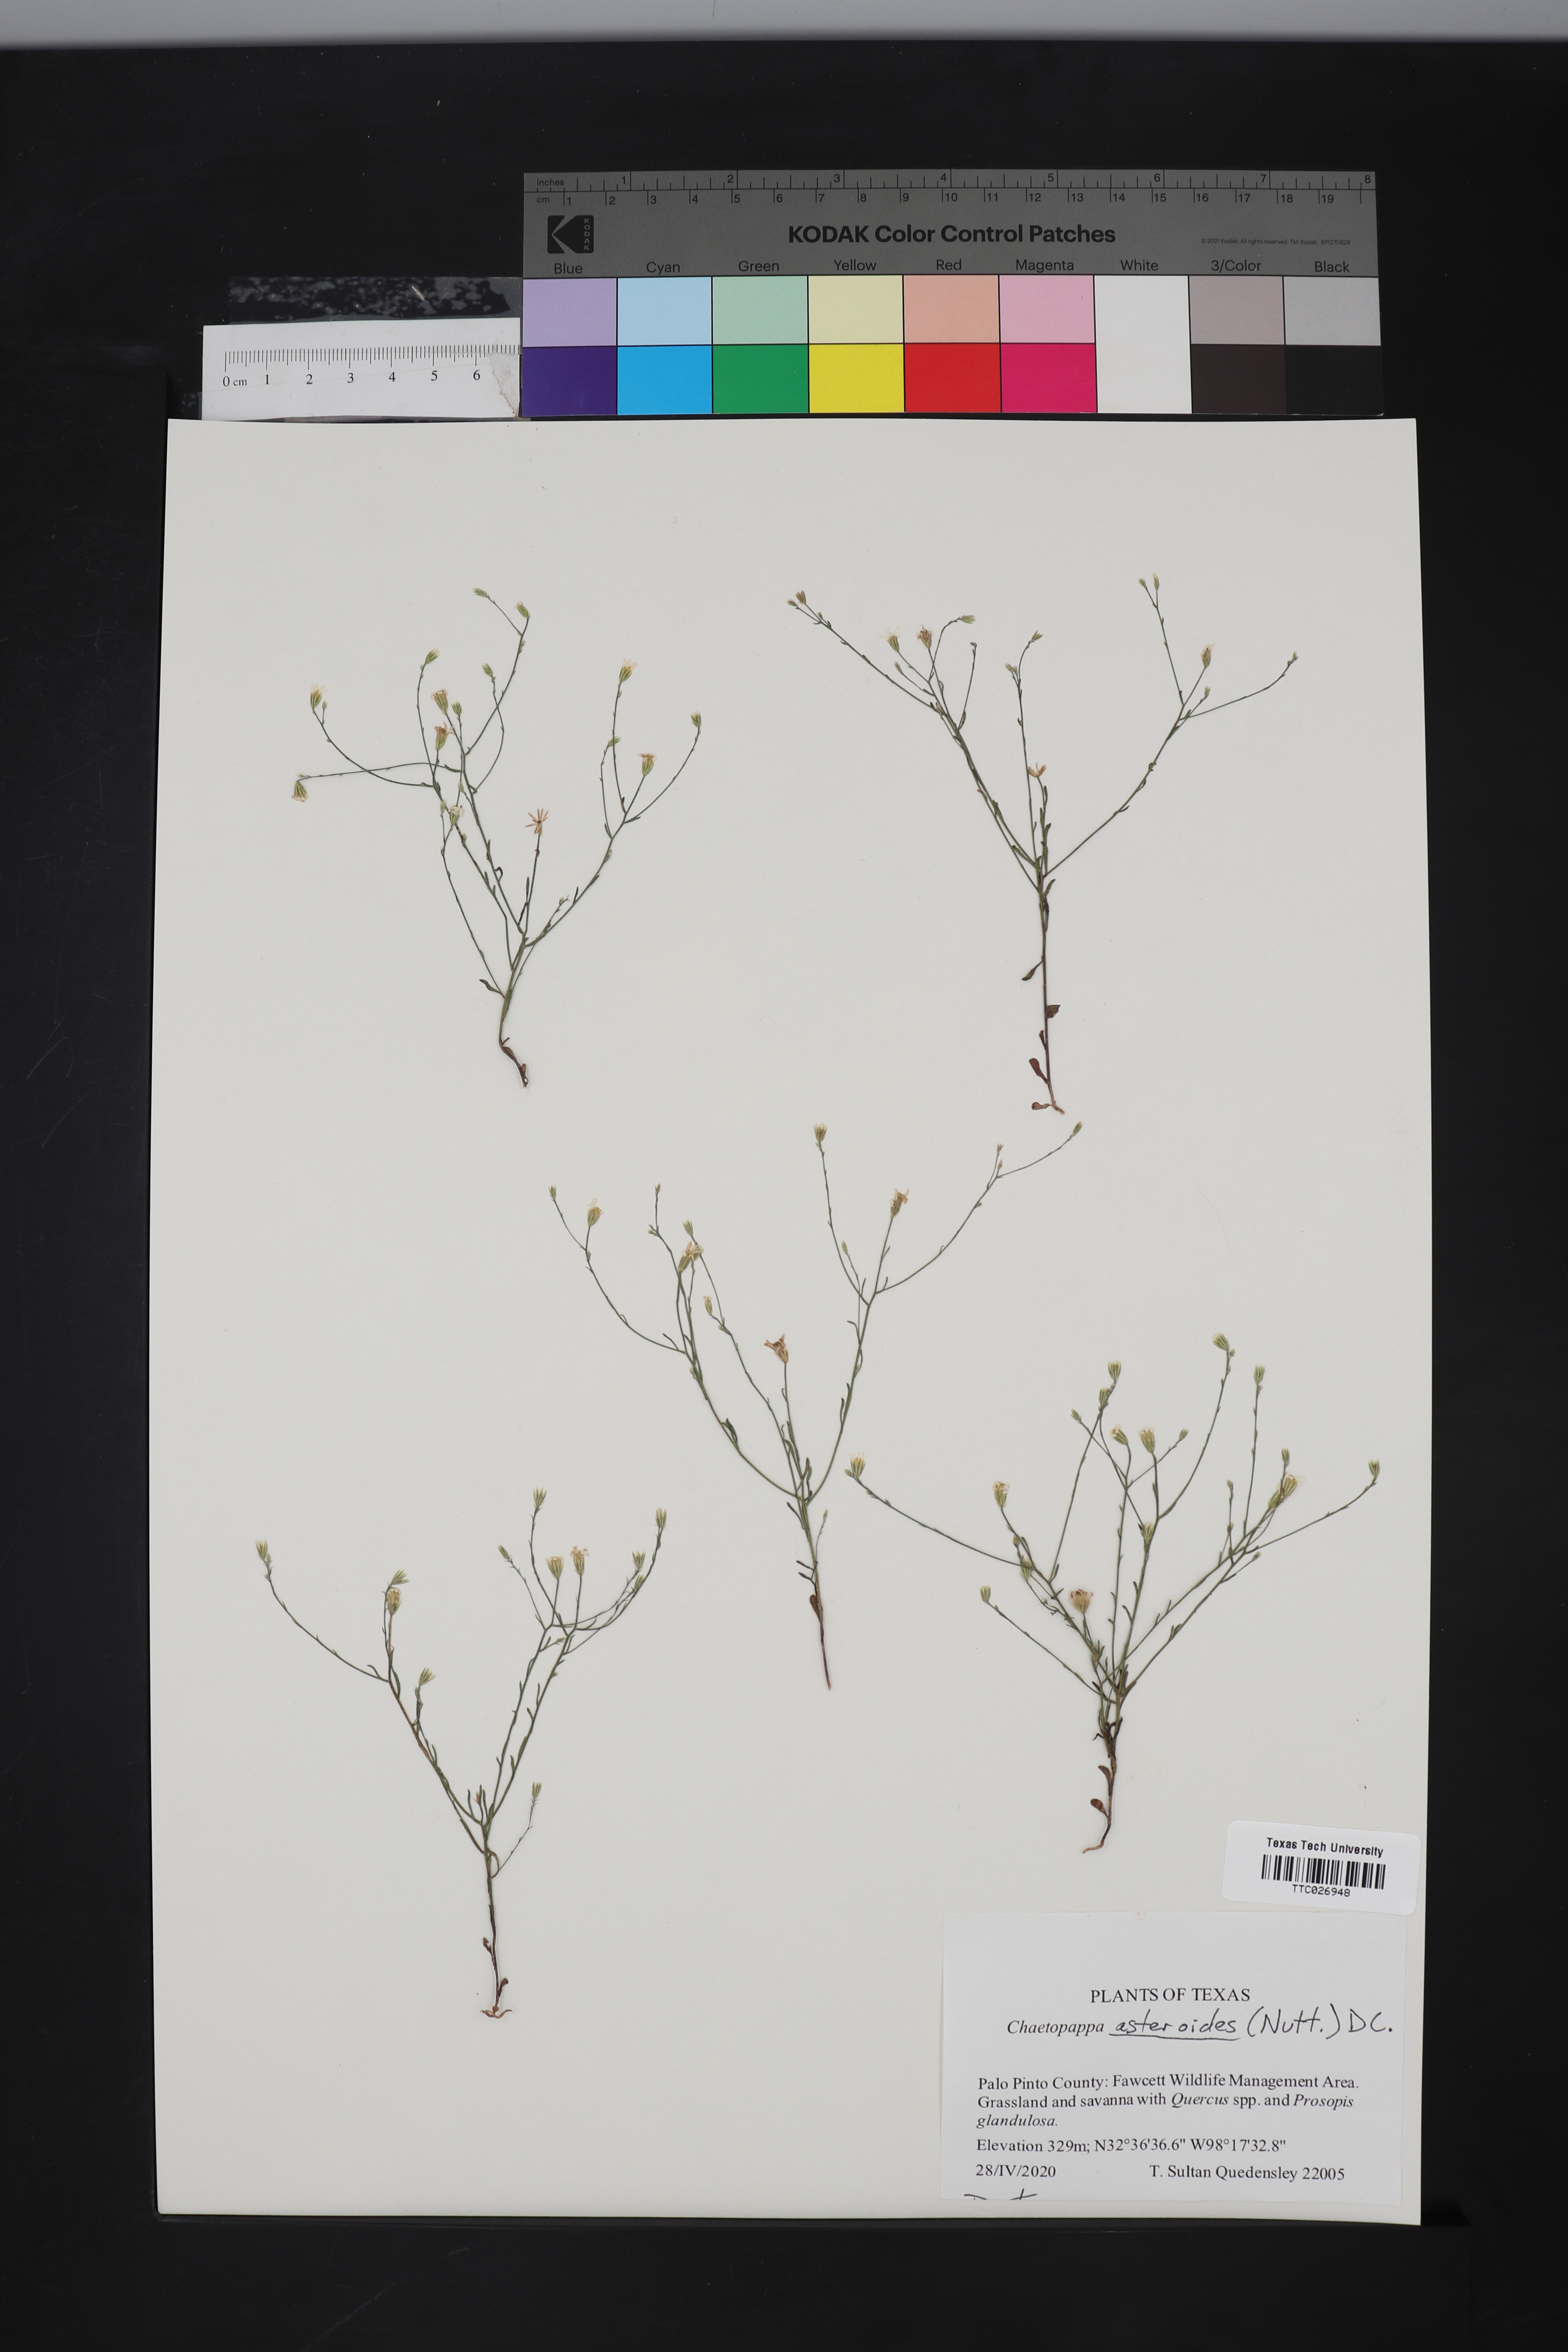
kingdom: Plantae
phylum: Tracheophyta
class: Magnoliopsida
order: Asterales
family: Asteraceae
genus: Chaetopappa
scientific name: Chaetopappa asteroides
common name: Tiny lazy daisy
